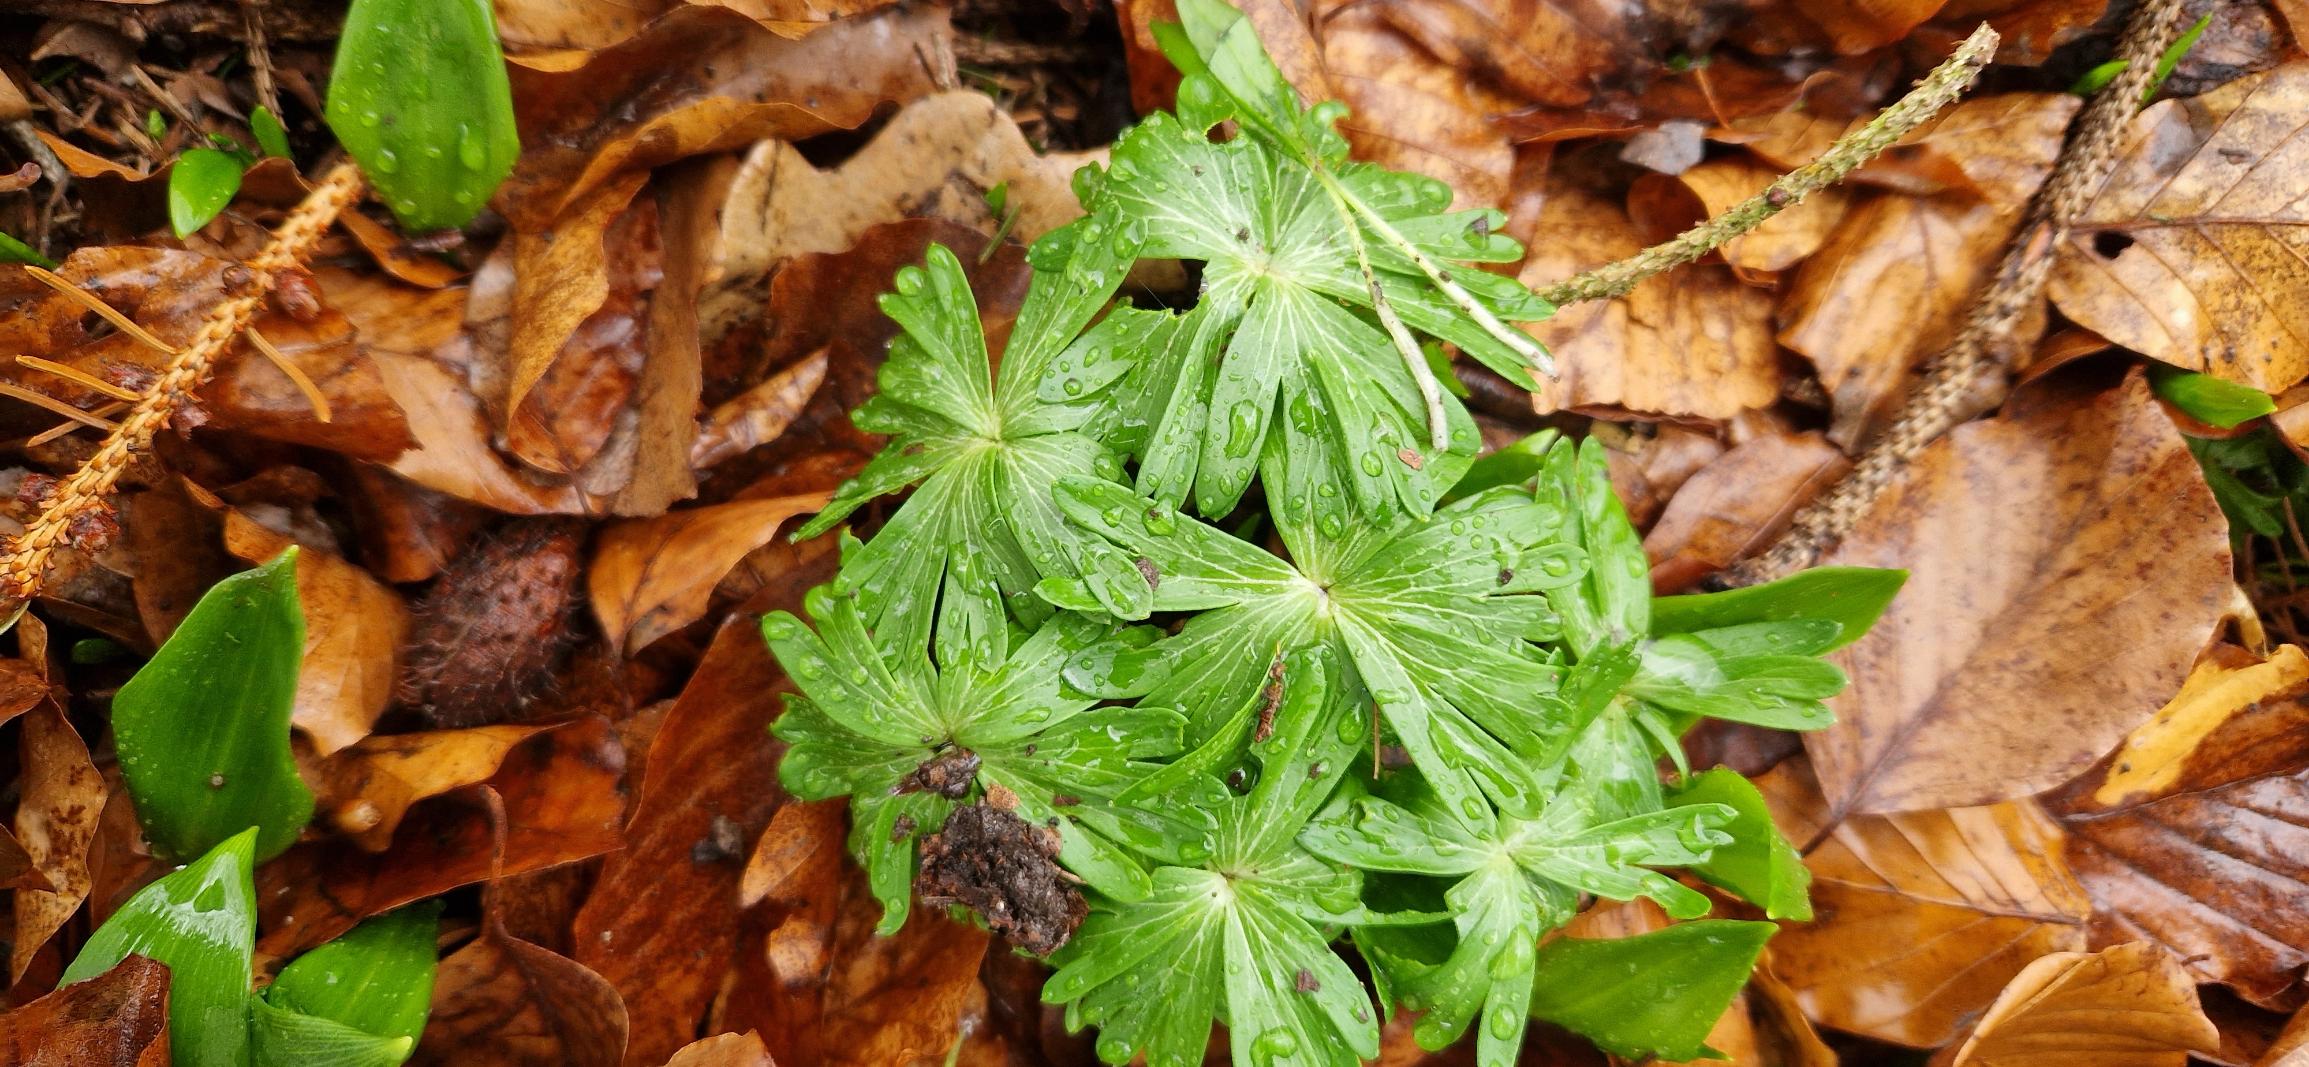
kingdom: Plantae
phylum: Tracheophyta
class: Magnoliopsida
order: Ranunculales
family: Ranunculaceae
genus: Eranthis
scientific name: Eranthis hyemalis
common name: Erantis
